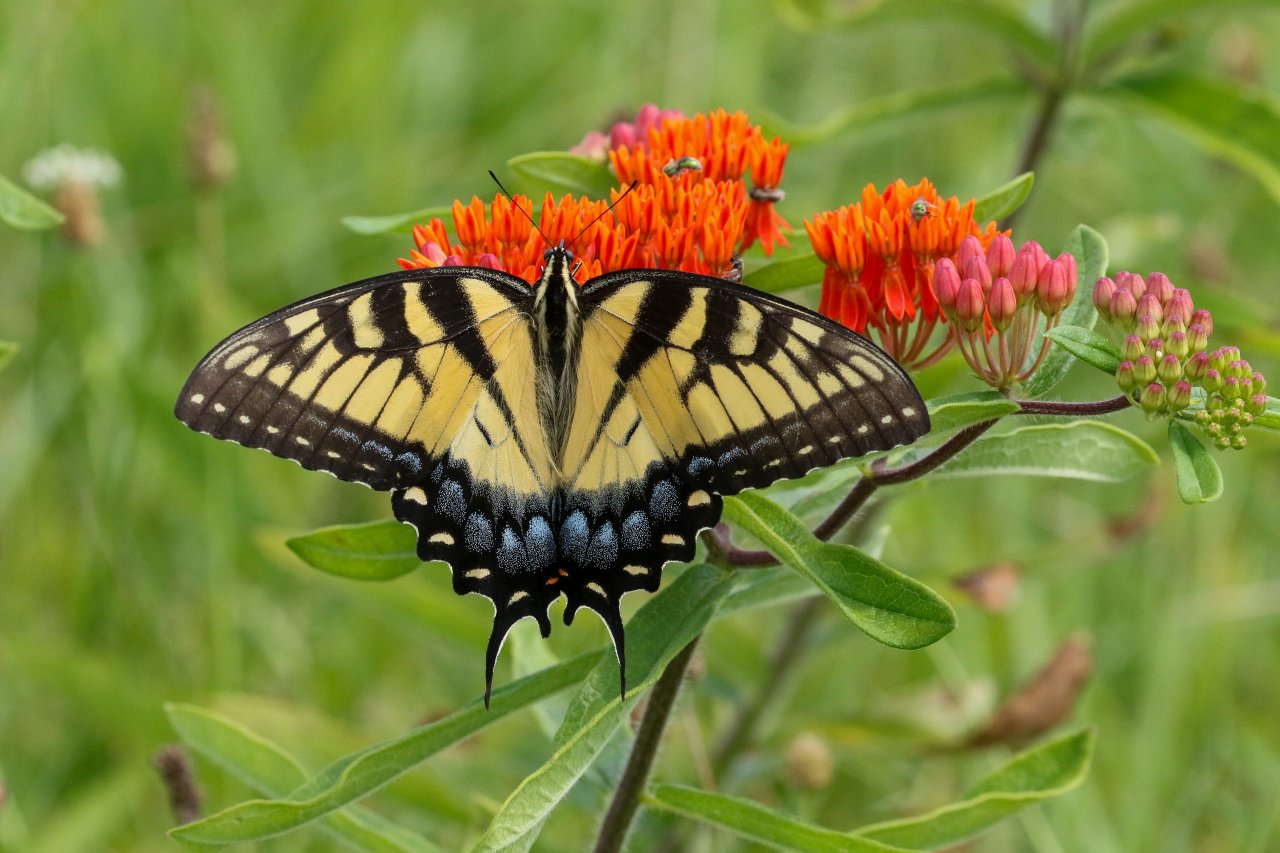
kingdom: Animalia
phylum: Arthropoda
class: Insecta
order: Lepidoptera
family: Papilionidae
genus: Pterourus
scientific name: Pterourus glaucus
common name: Eastern Tiger Swallowtail
